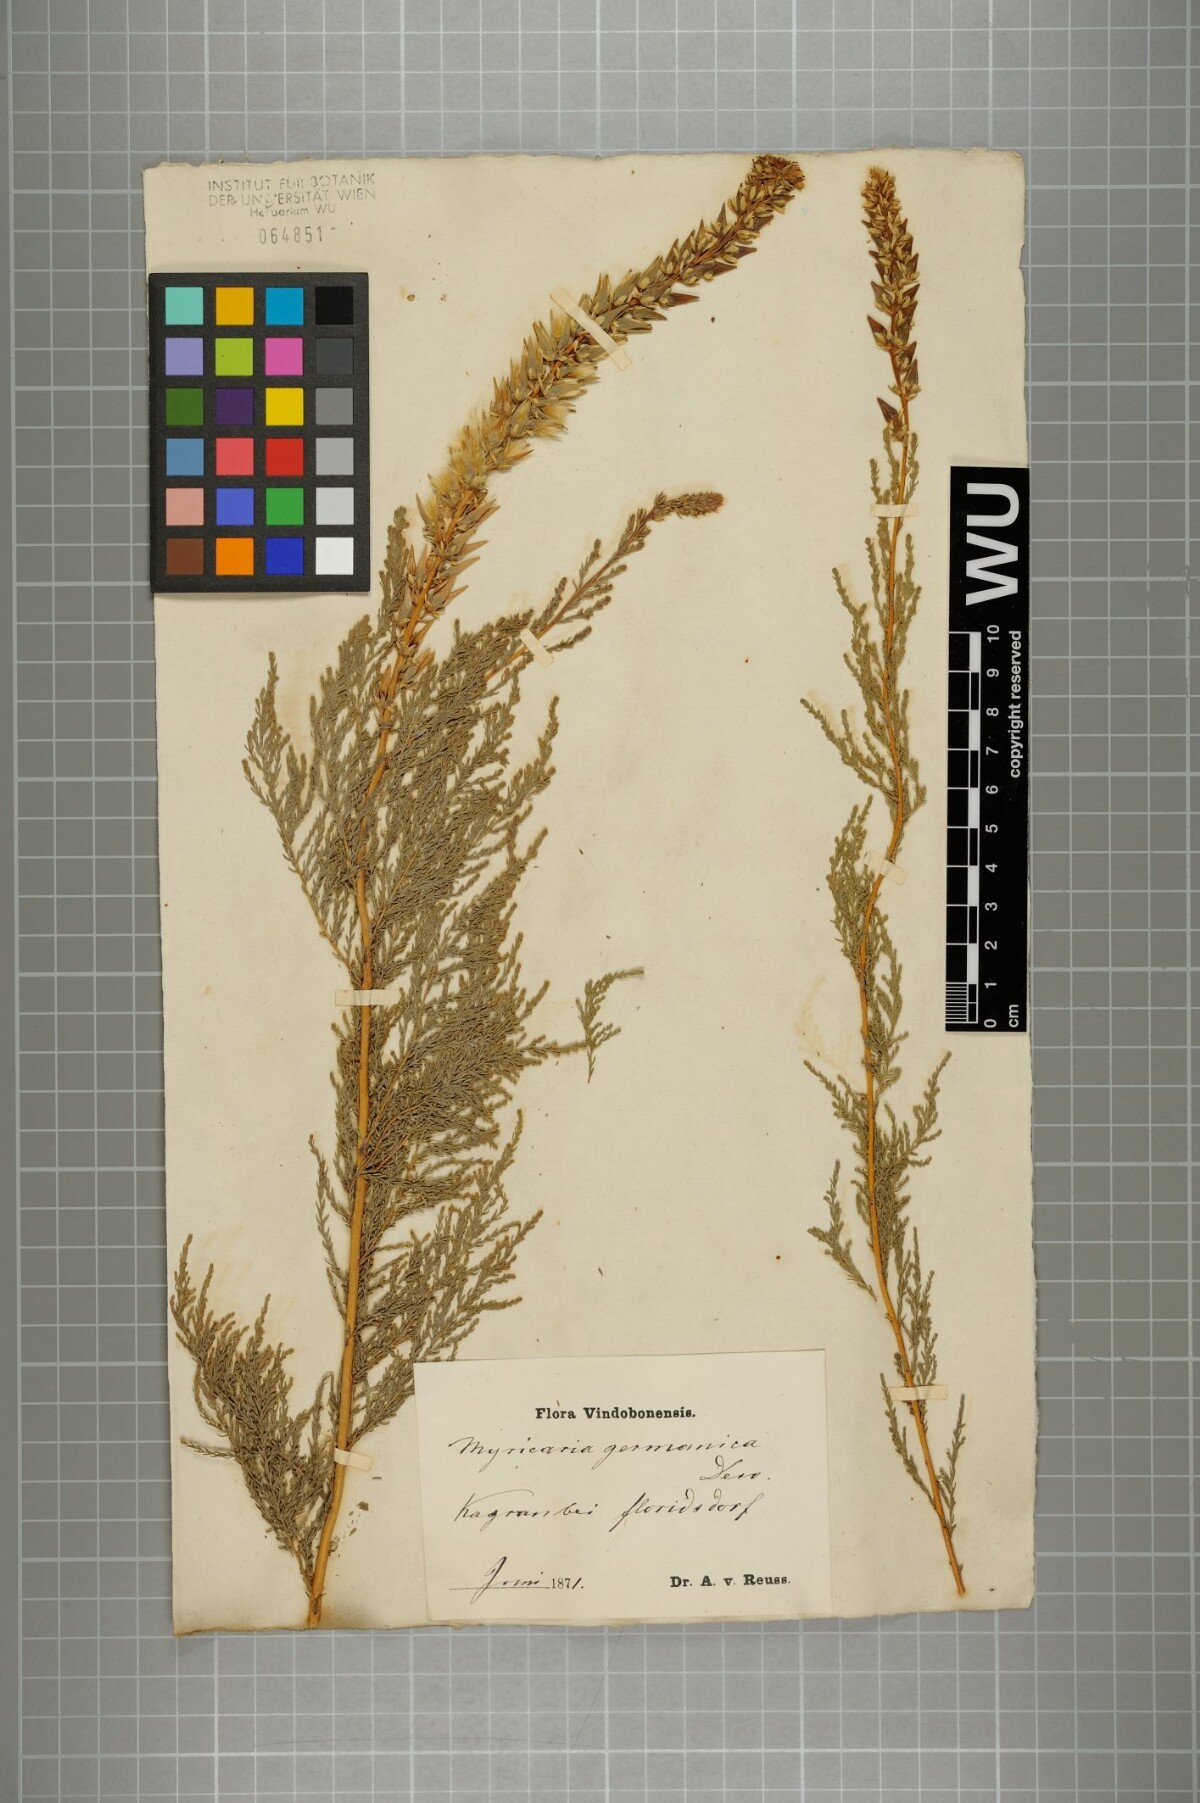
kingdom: Plantae
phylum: Tracheophyta
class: Magnoliopsida
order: Caryophyllales
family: Tamaricaceae
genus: Myricaria
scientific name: Myricaria germanica
